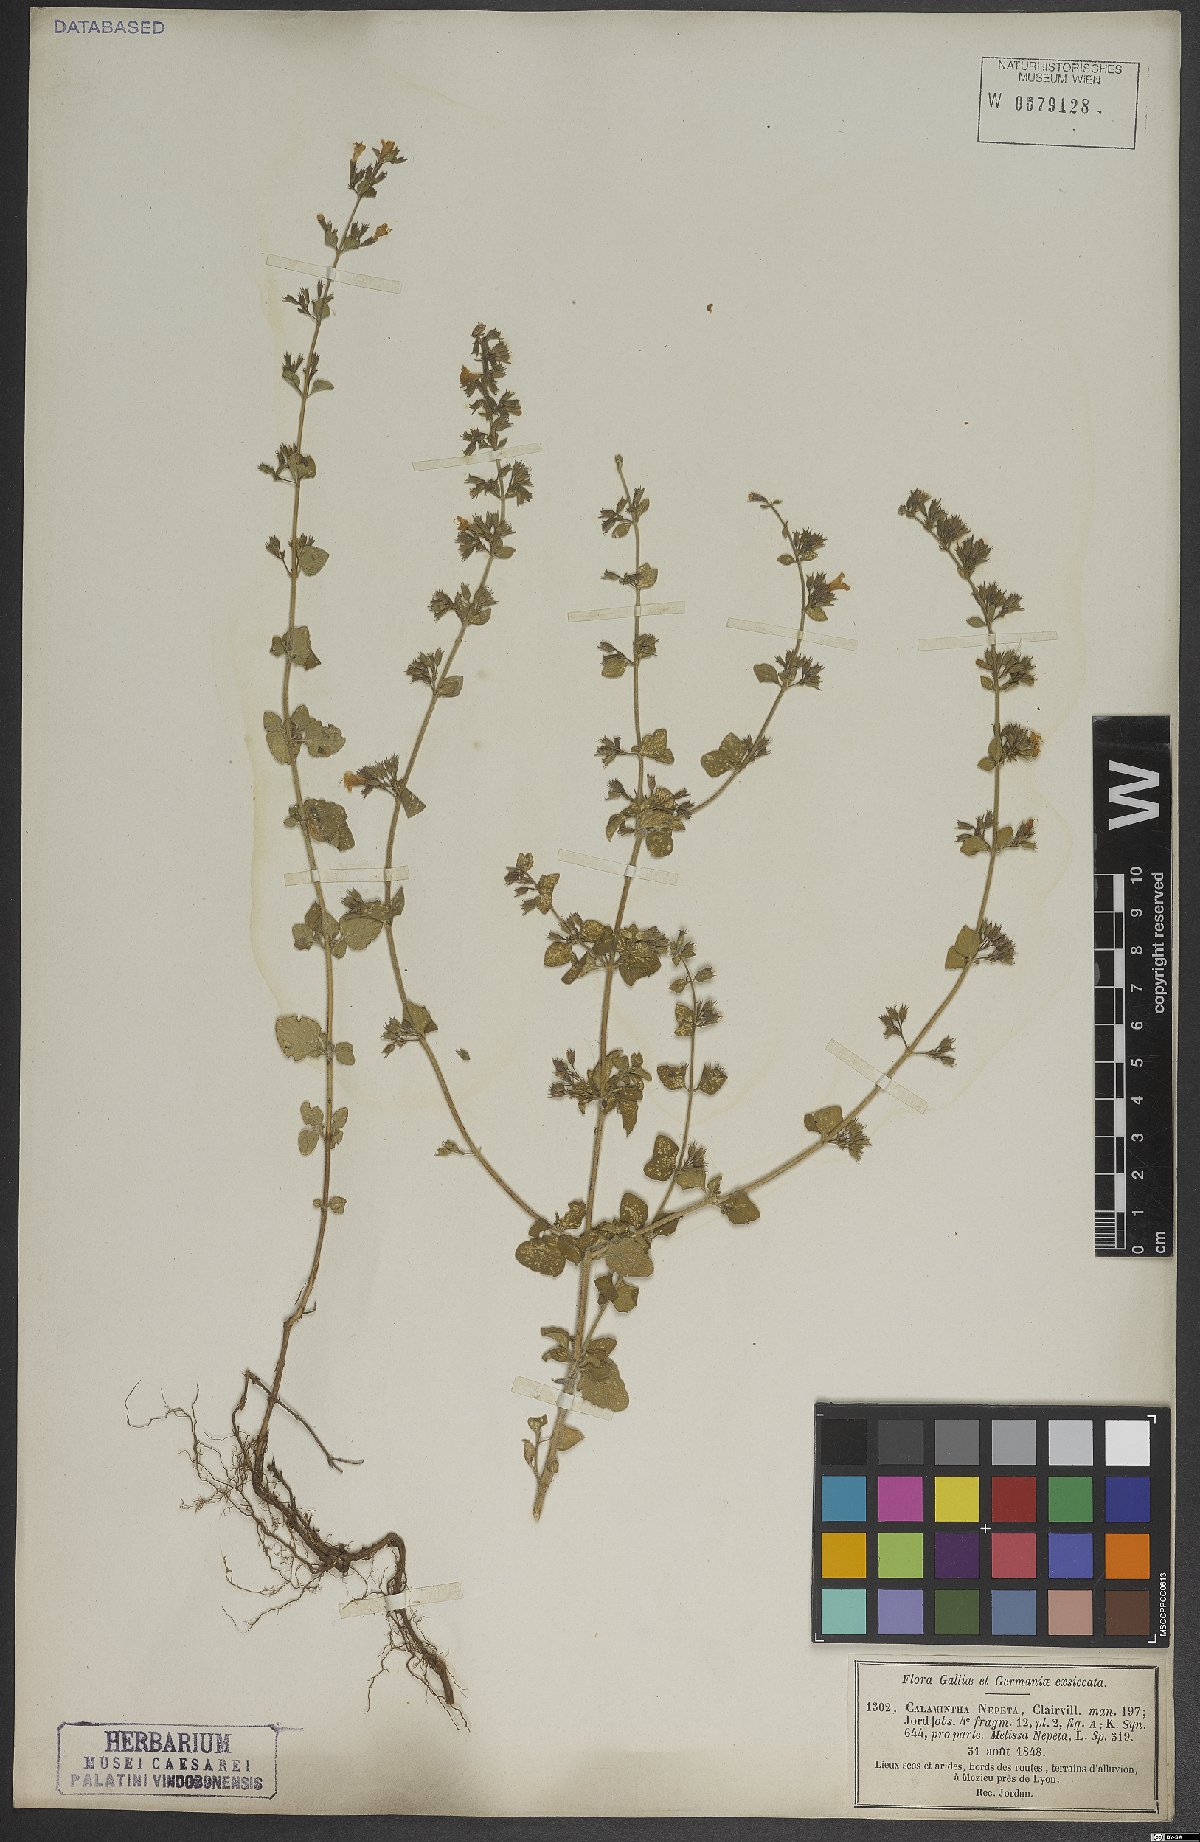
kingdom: Plantae
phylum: Tracheophyta
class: Magnoliopsida
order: Lamiales
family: Lamiaceae
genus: Clinopodium
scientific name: Clinopodium nepeta
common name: Lesser calamint
